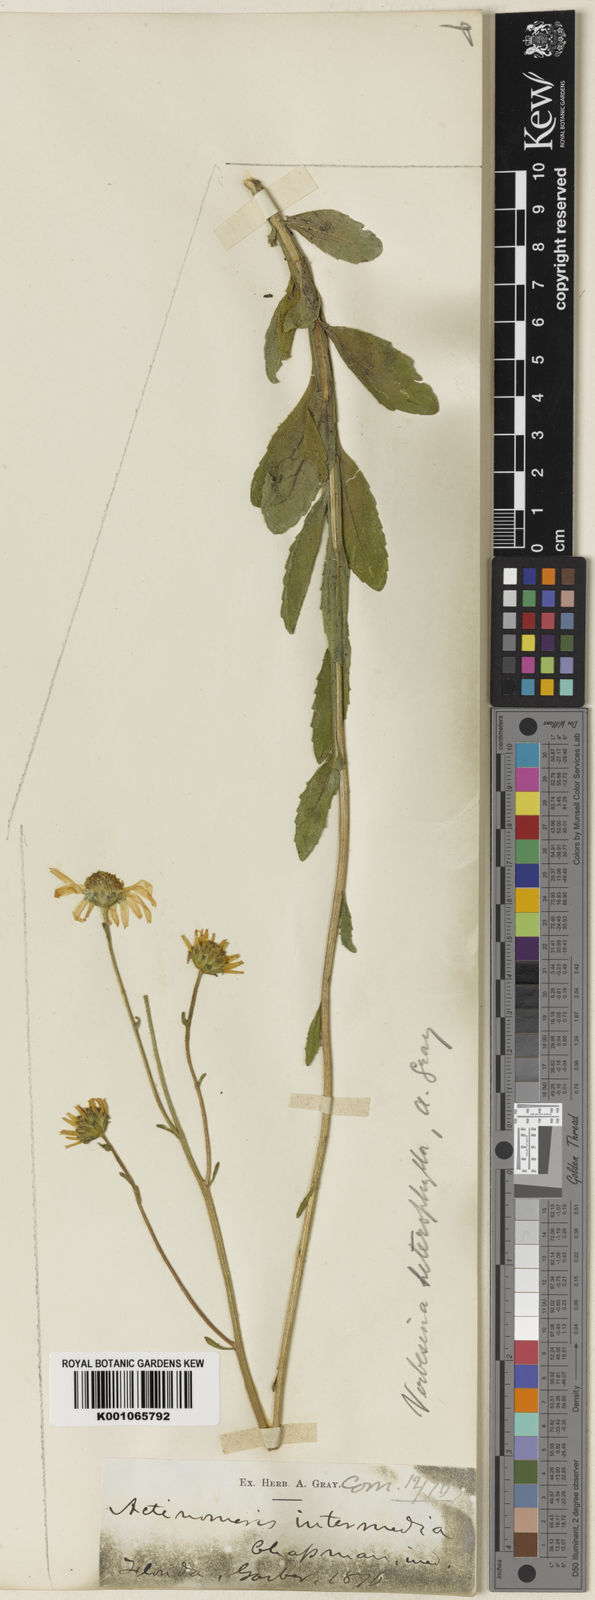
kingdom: Plantae
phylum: Tracheophyta
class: Magnoliopsida
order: Asterales
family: Asteraceae
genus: Verbesina
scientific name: Verbesina heterophylla
